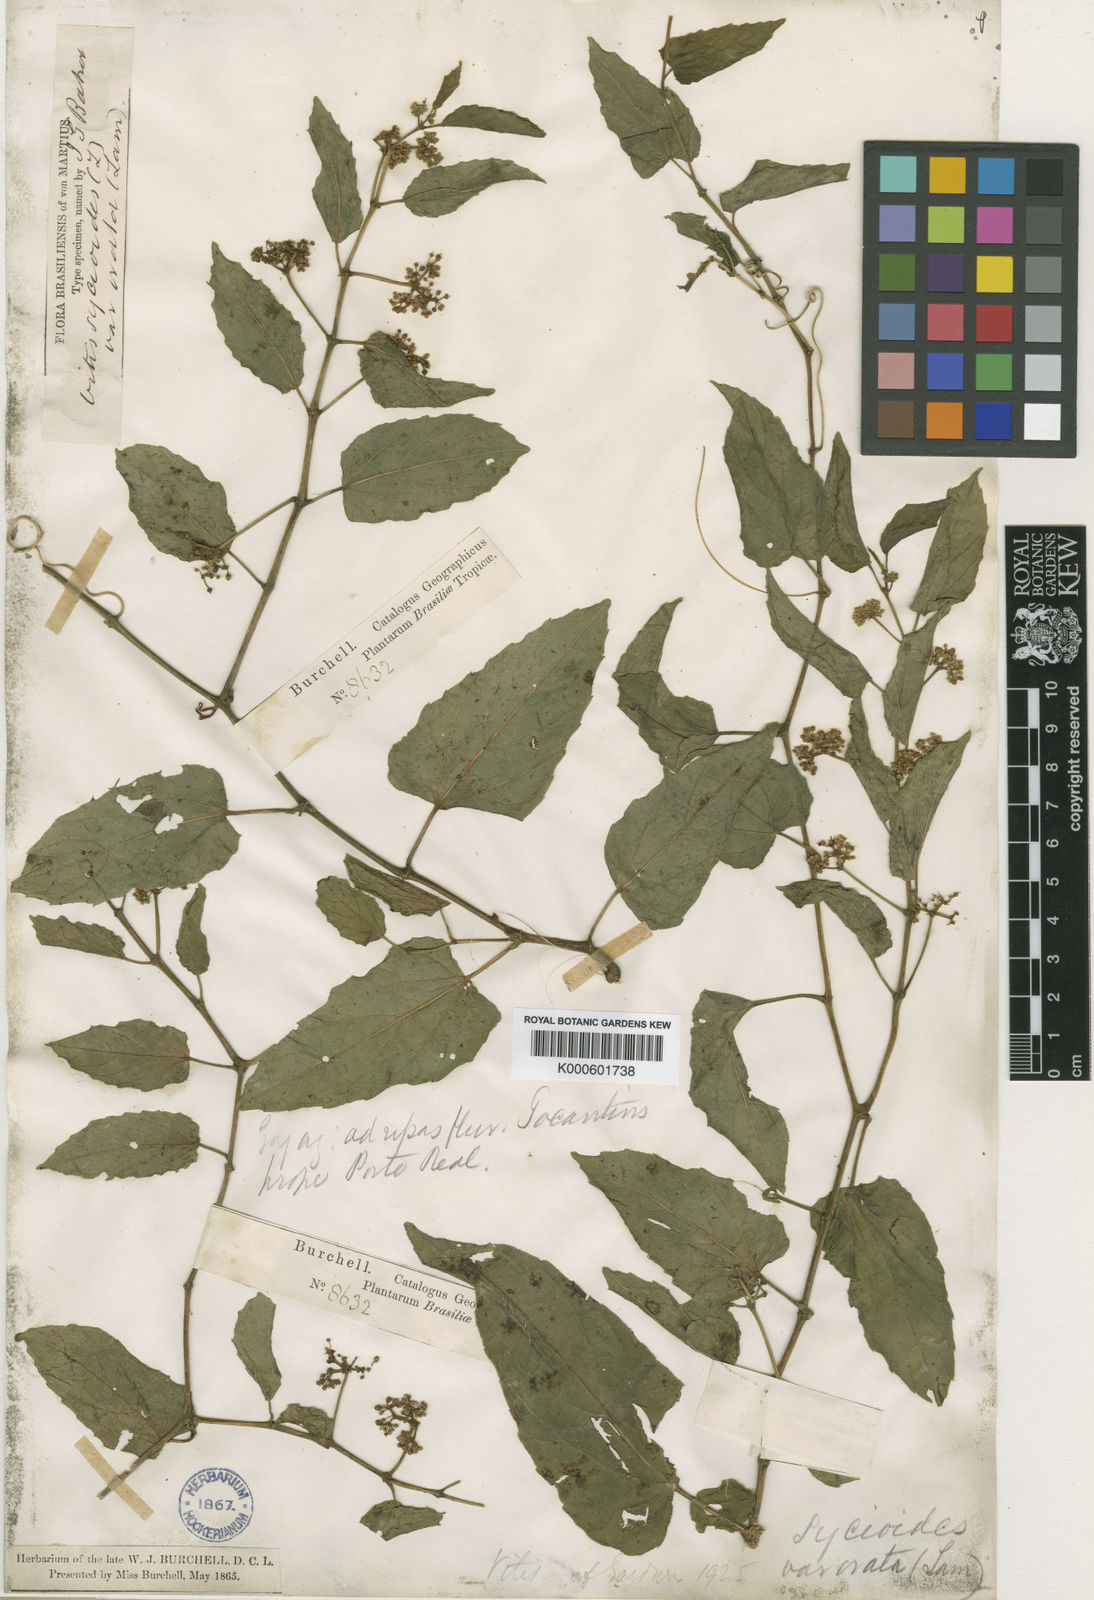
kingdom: Plantae
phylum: Tracheophyta
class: Magnoliopsida
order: Vitales
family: Vitaceae
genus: Cissus
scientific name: Cissus verticillata
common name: Princess vine
